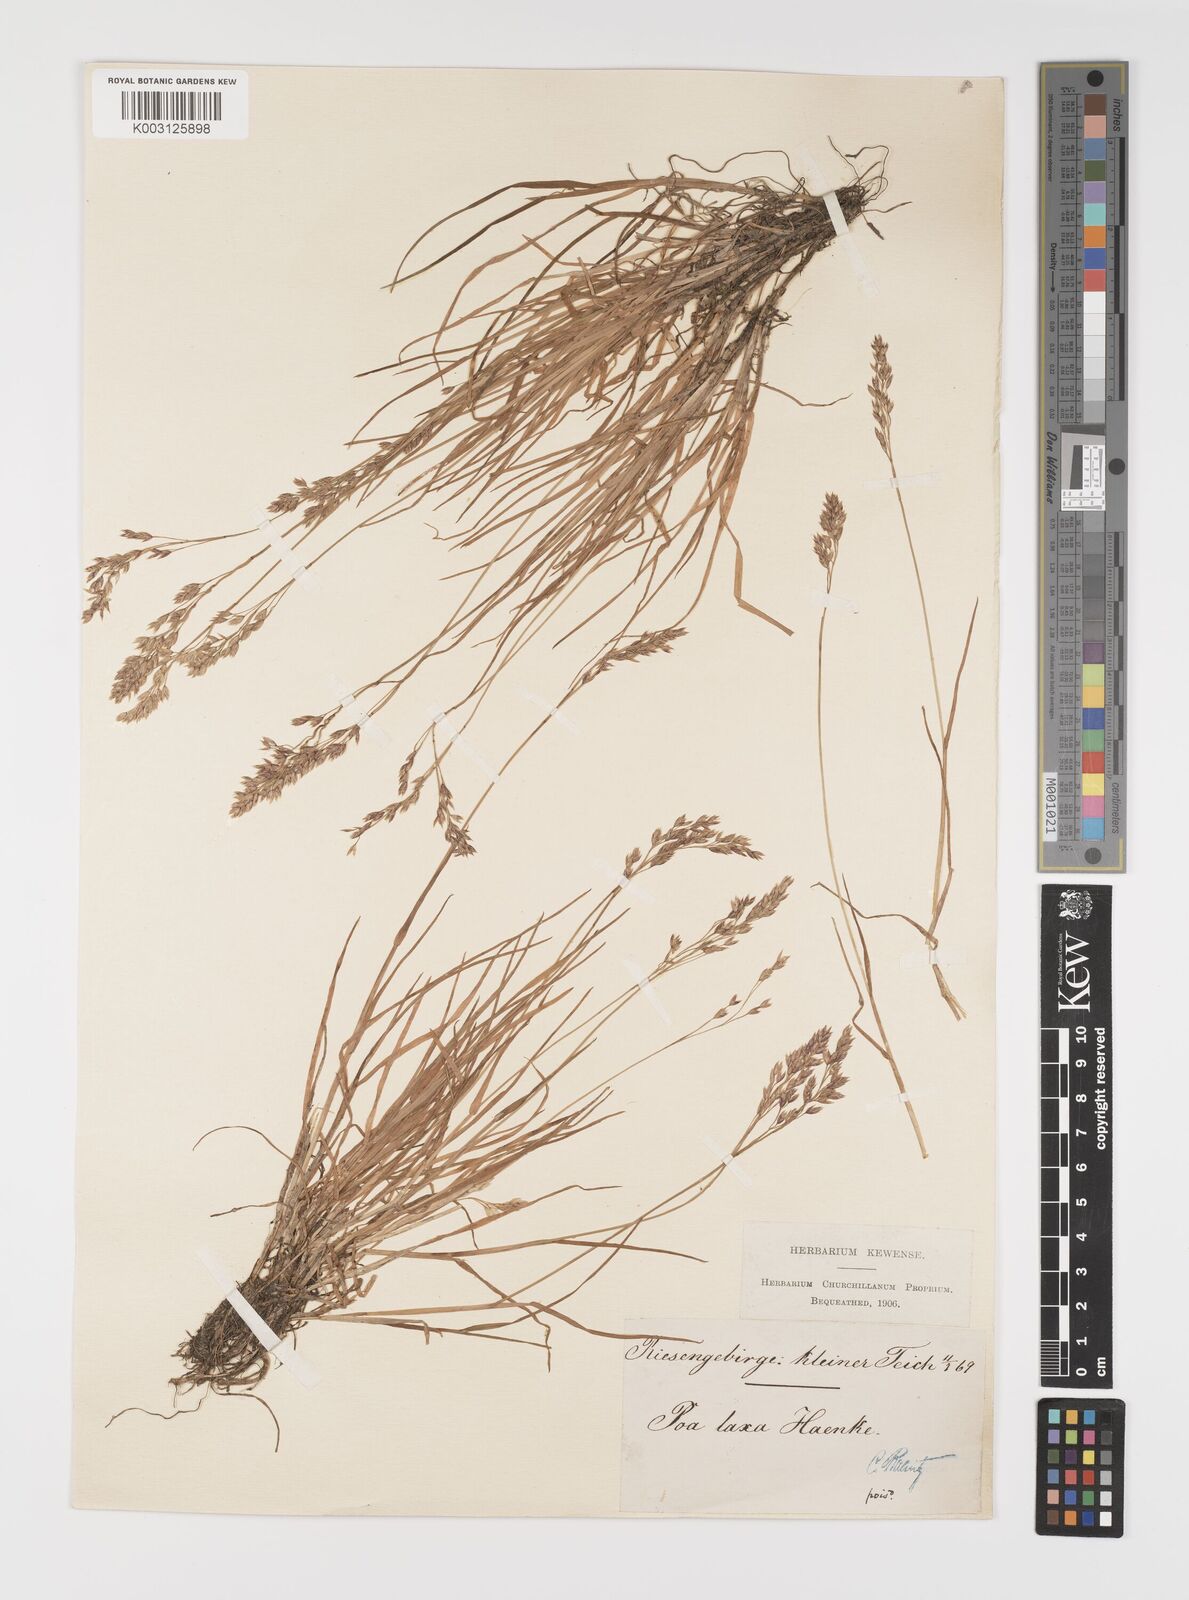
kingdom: Plantae
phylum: Tracheophyta
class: Liliopsida
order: Poales
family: Poaceae
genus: Poa
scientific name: Poa laxa
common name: Lax bluegrass
